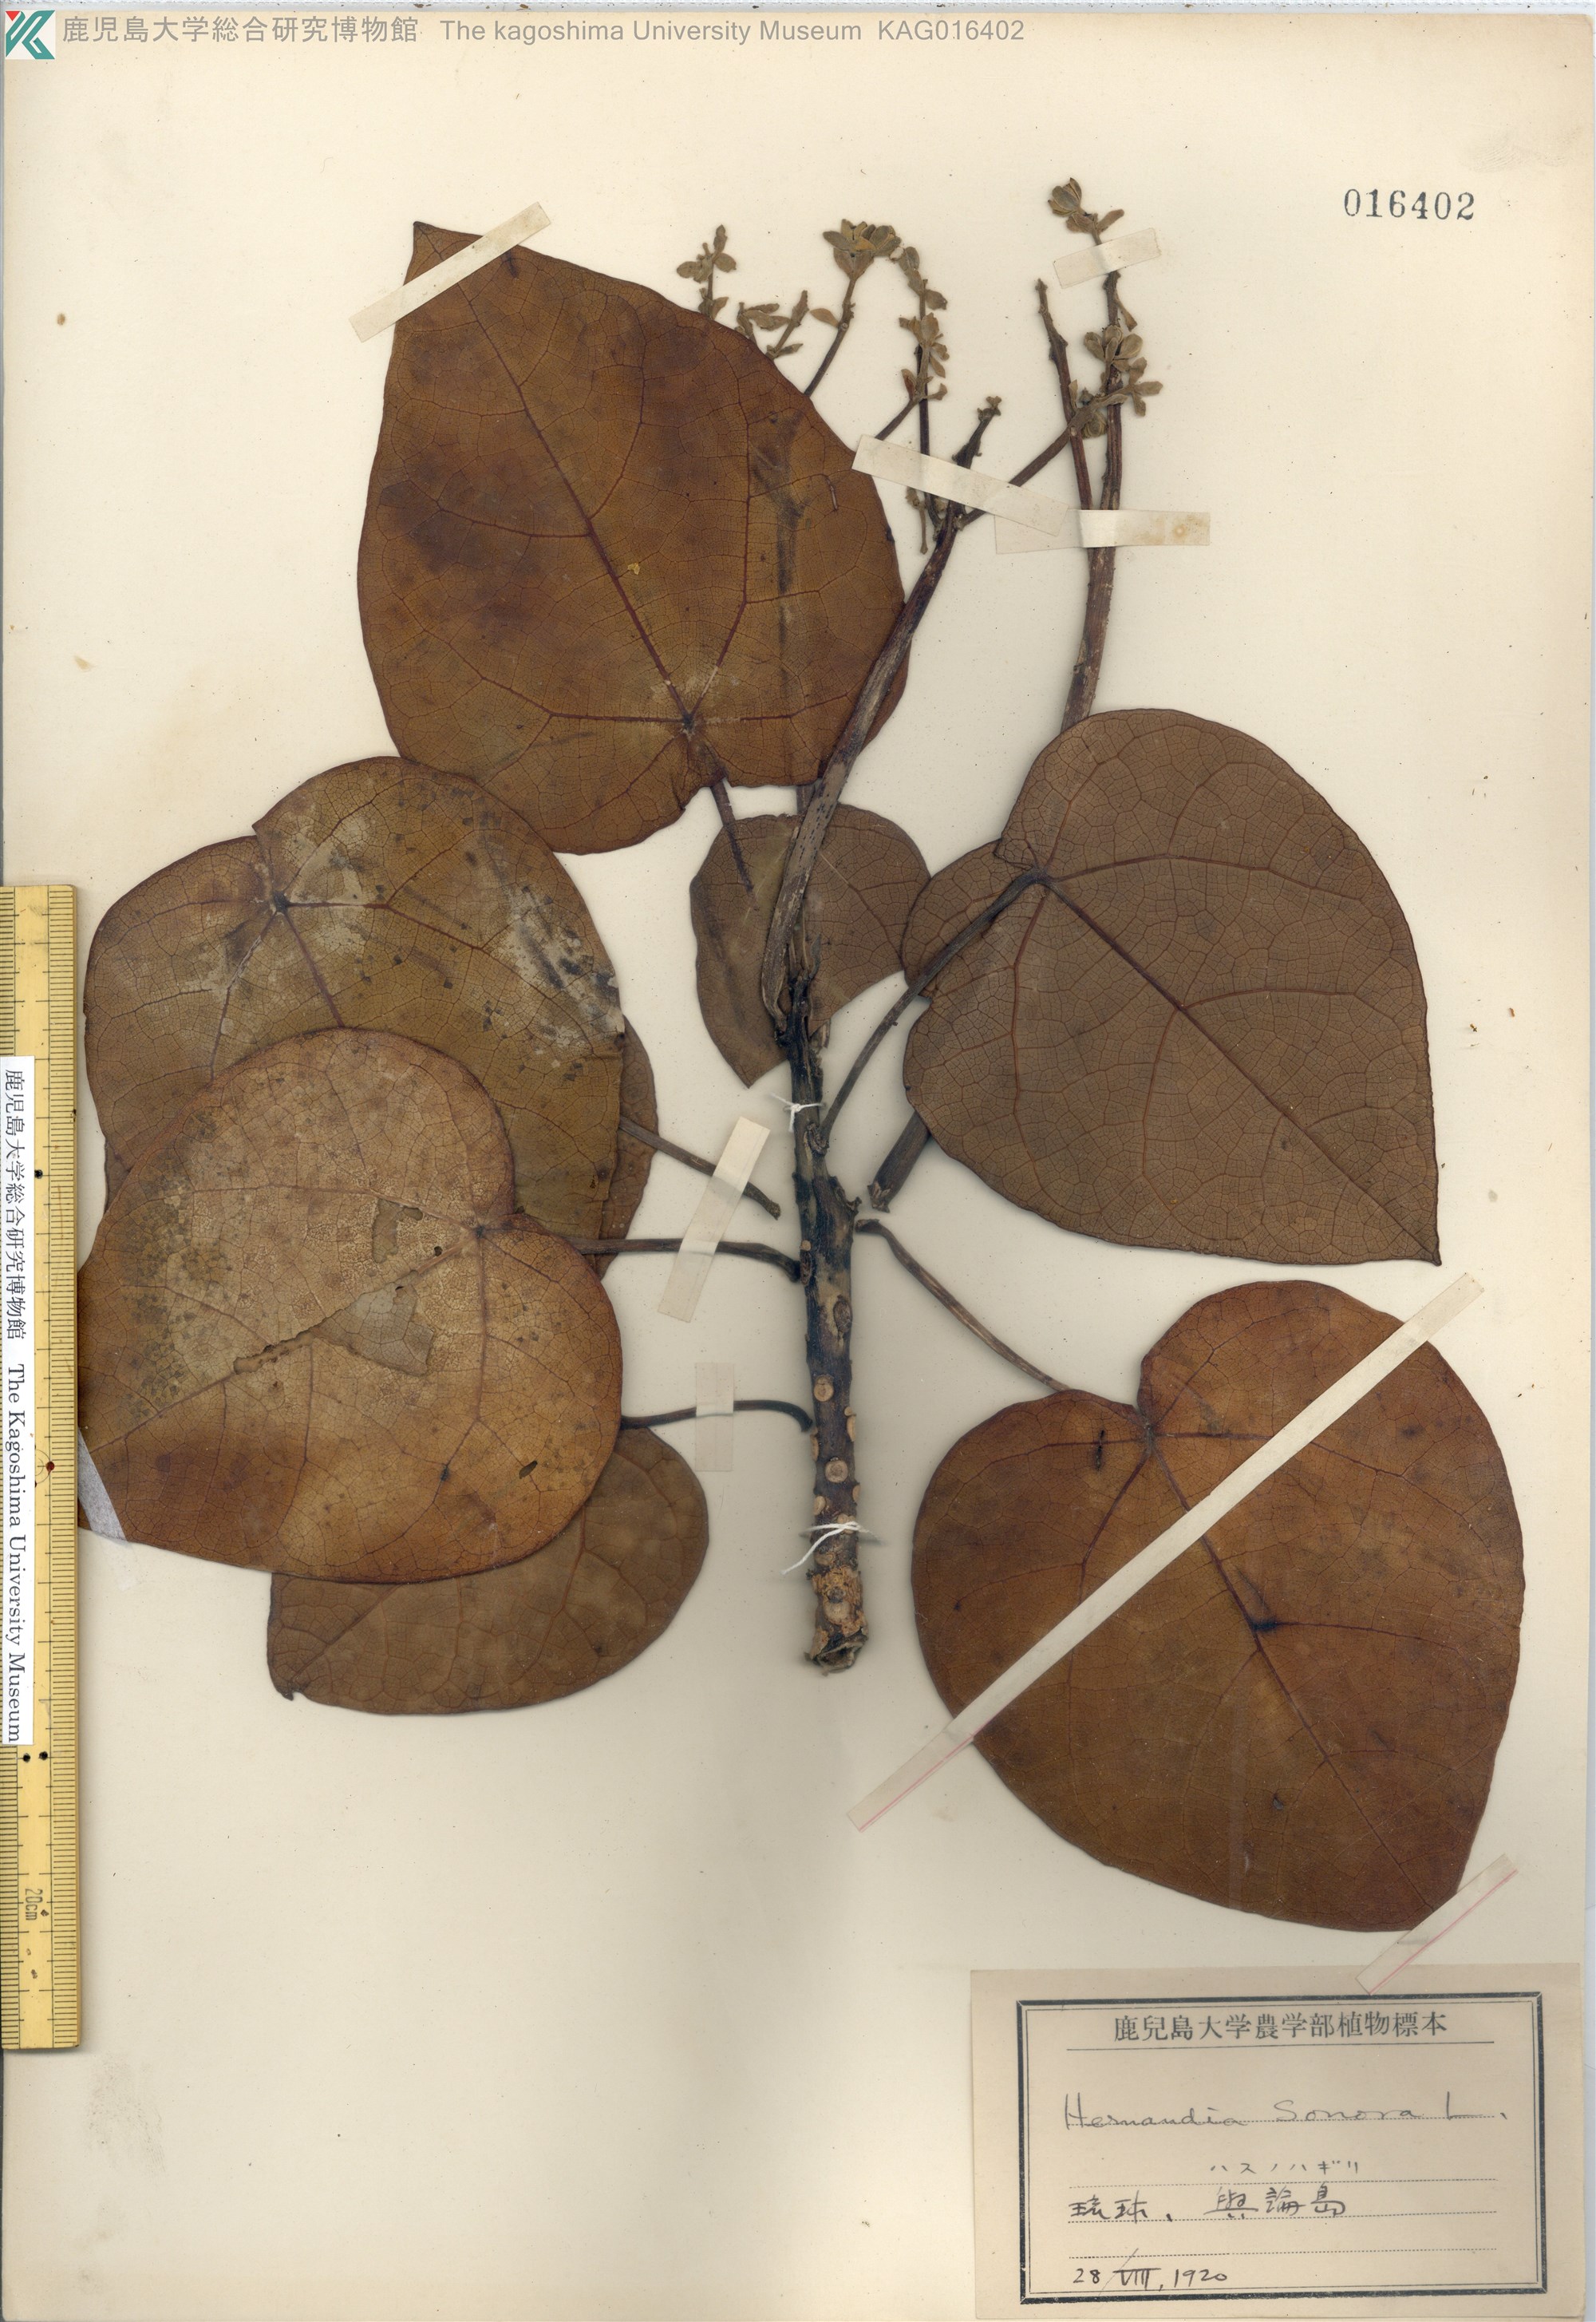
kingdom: Plantae
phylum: Tracheophyta
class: Magnoliopsida
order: Laurales
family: Hernandiaceae
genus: Hernandia
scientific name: Hernandia nymphaeifolia
